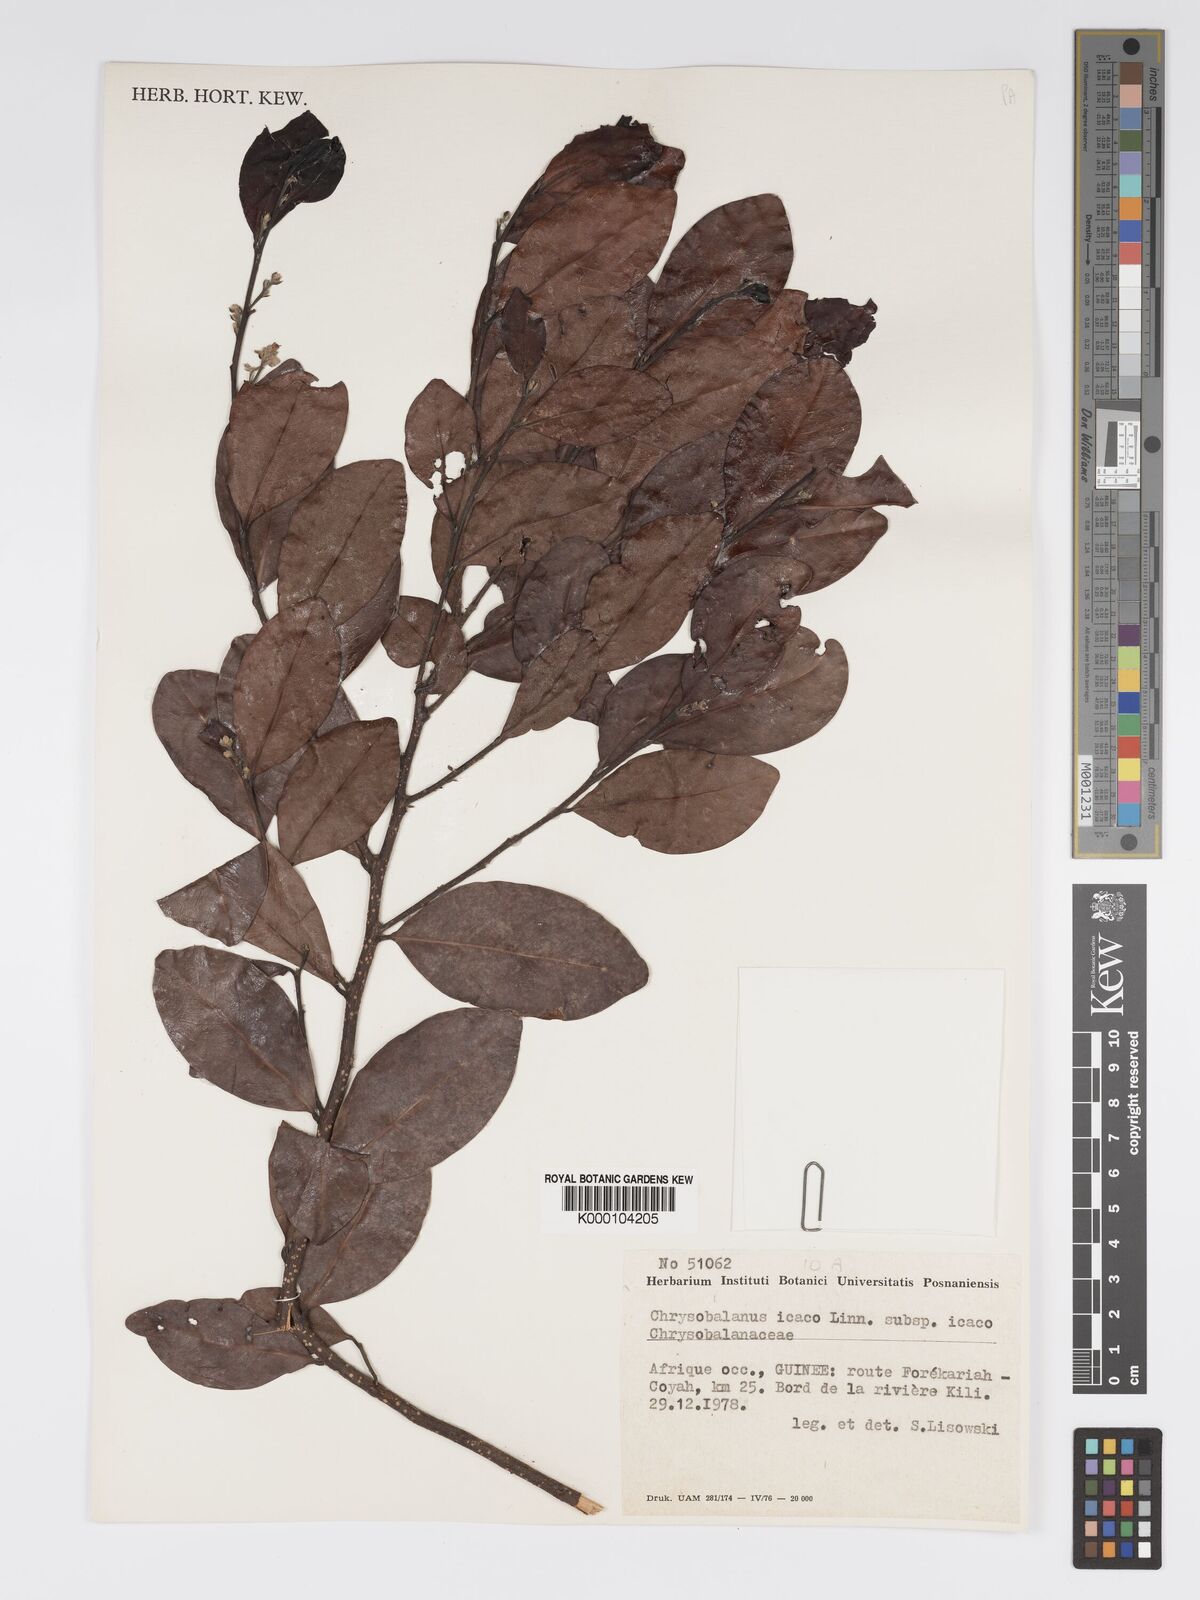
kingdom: Plantae
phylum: Tracheophyta
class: Magnoliopsida
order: Malpighiales
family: Chrysobalanaceae
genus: Chrysobalanus
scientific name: Chrysobalanus icaco
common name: Coco plum
